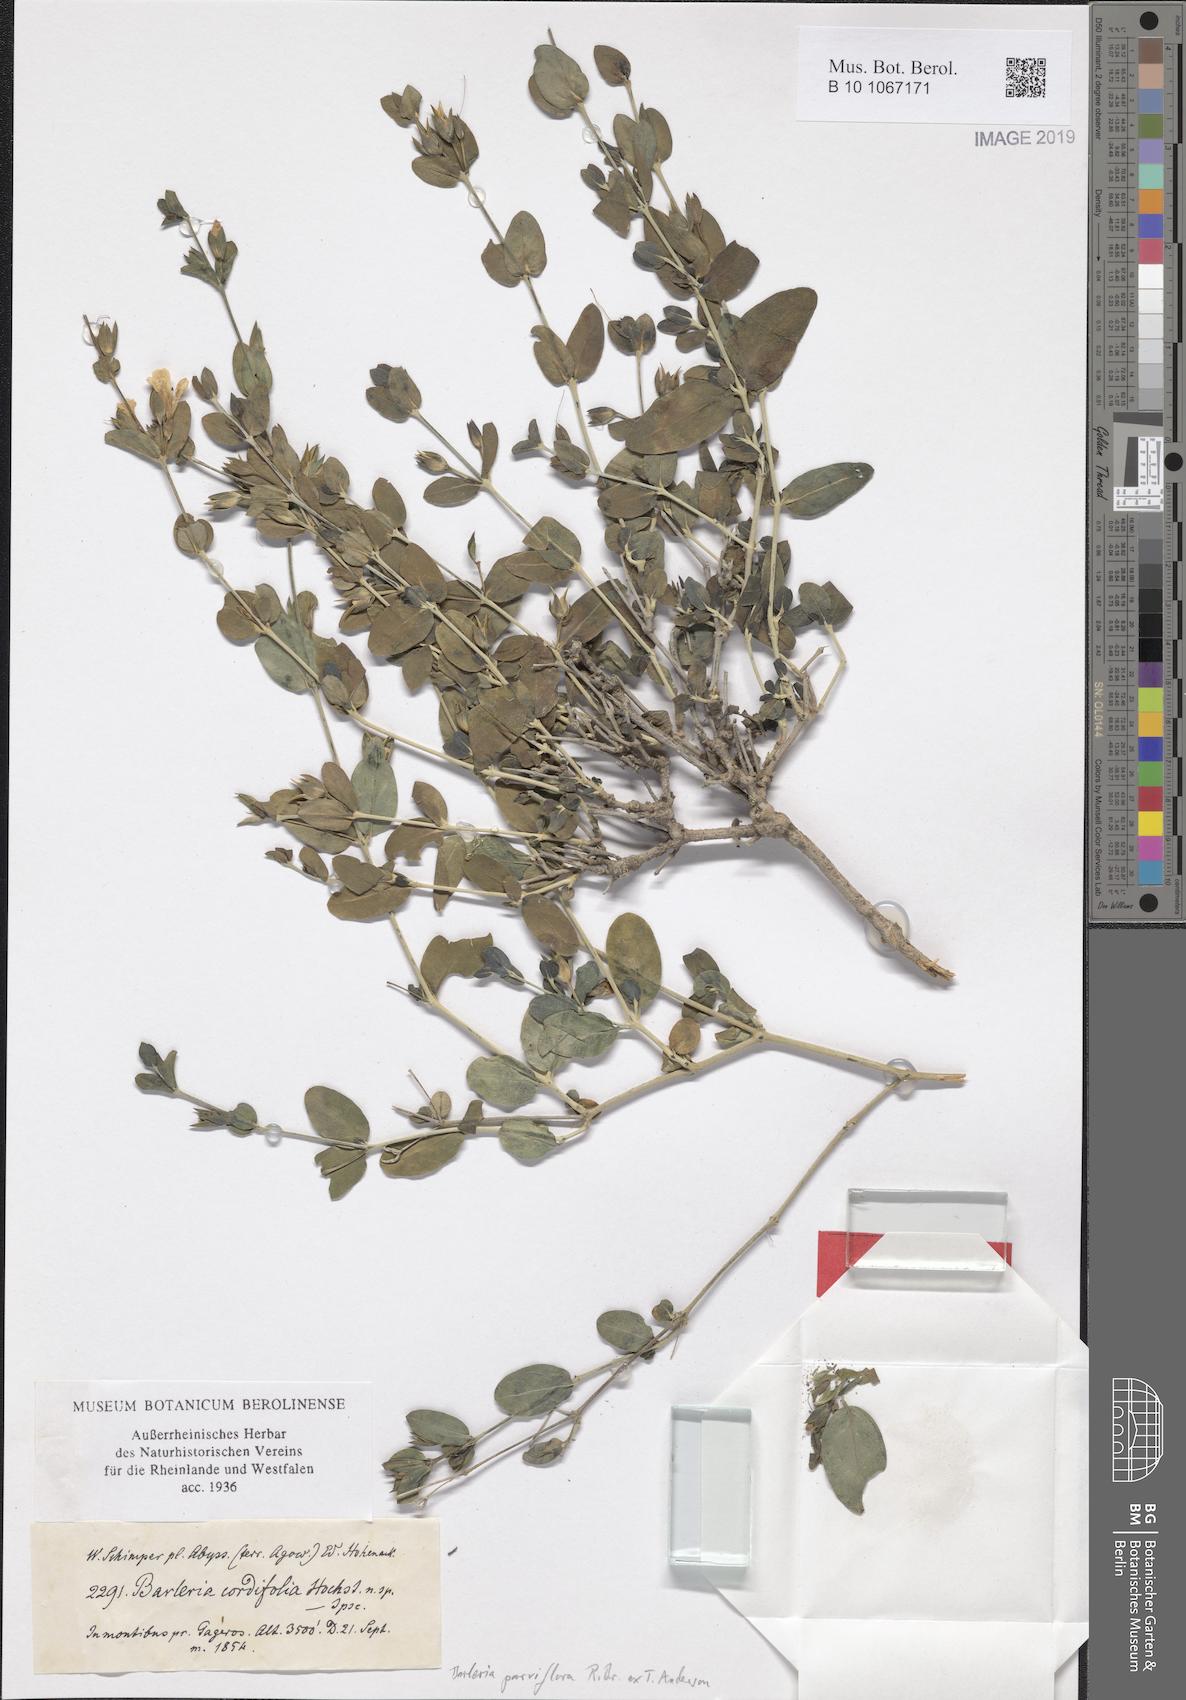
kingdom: Plantae
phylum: Tracheophyta
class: Magnoliopsida
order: Lamiales
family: Acanthaceae
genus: Barleria
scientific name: Barleria parviflora
